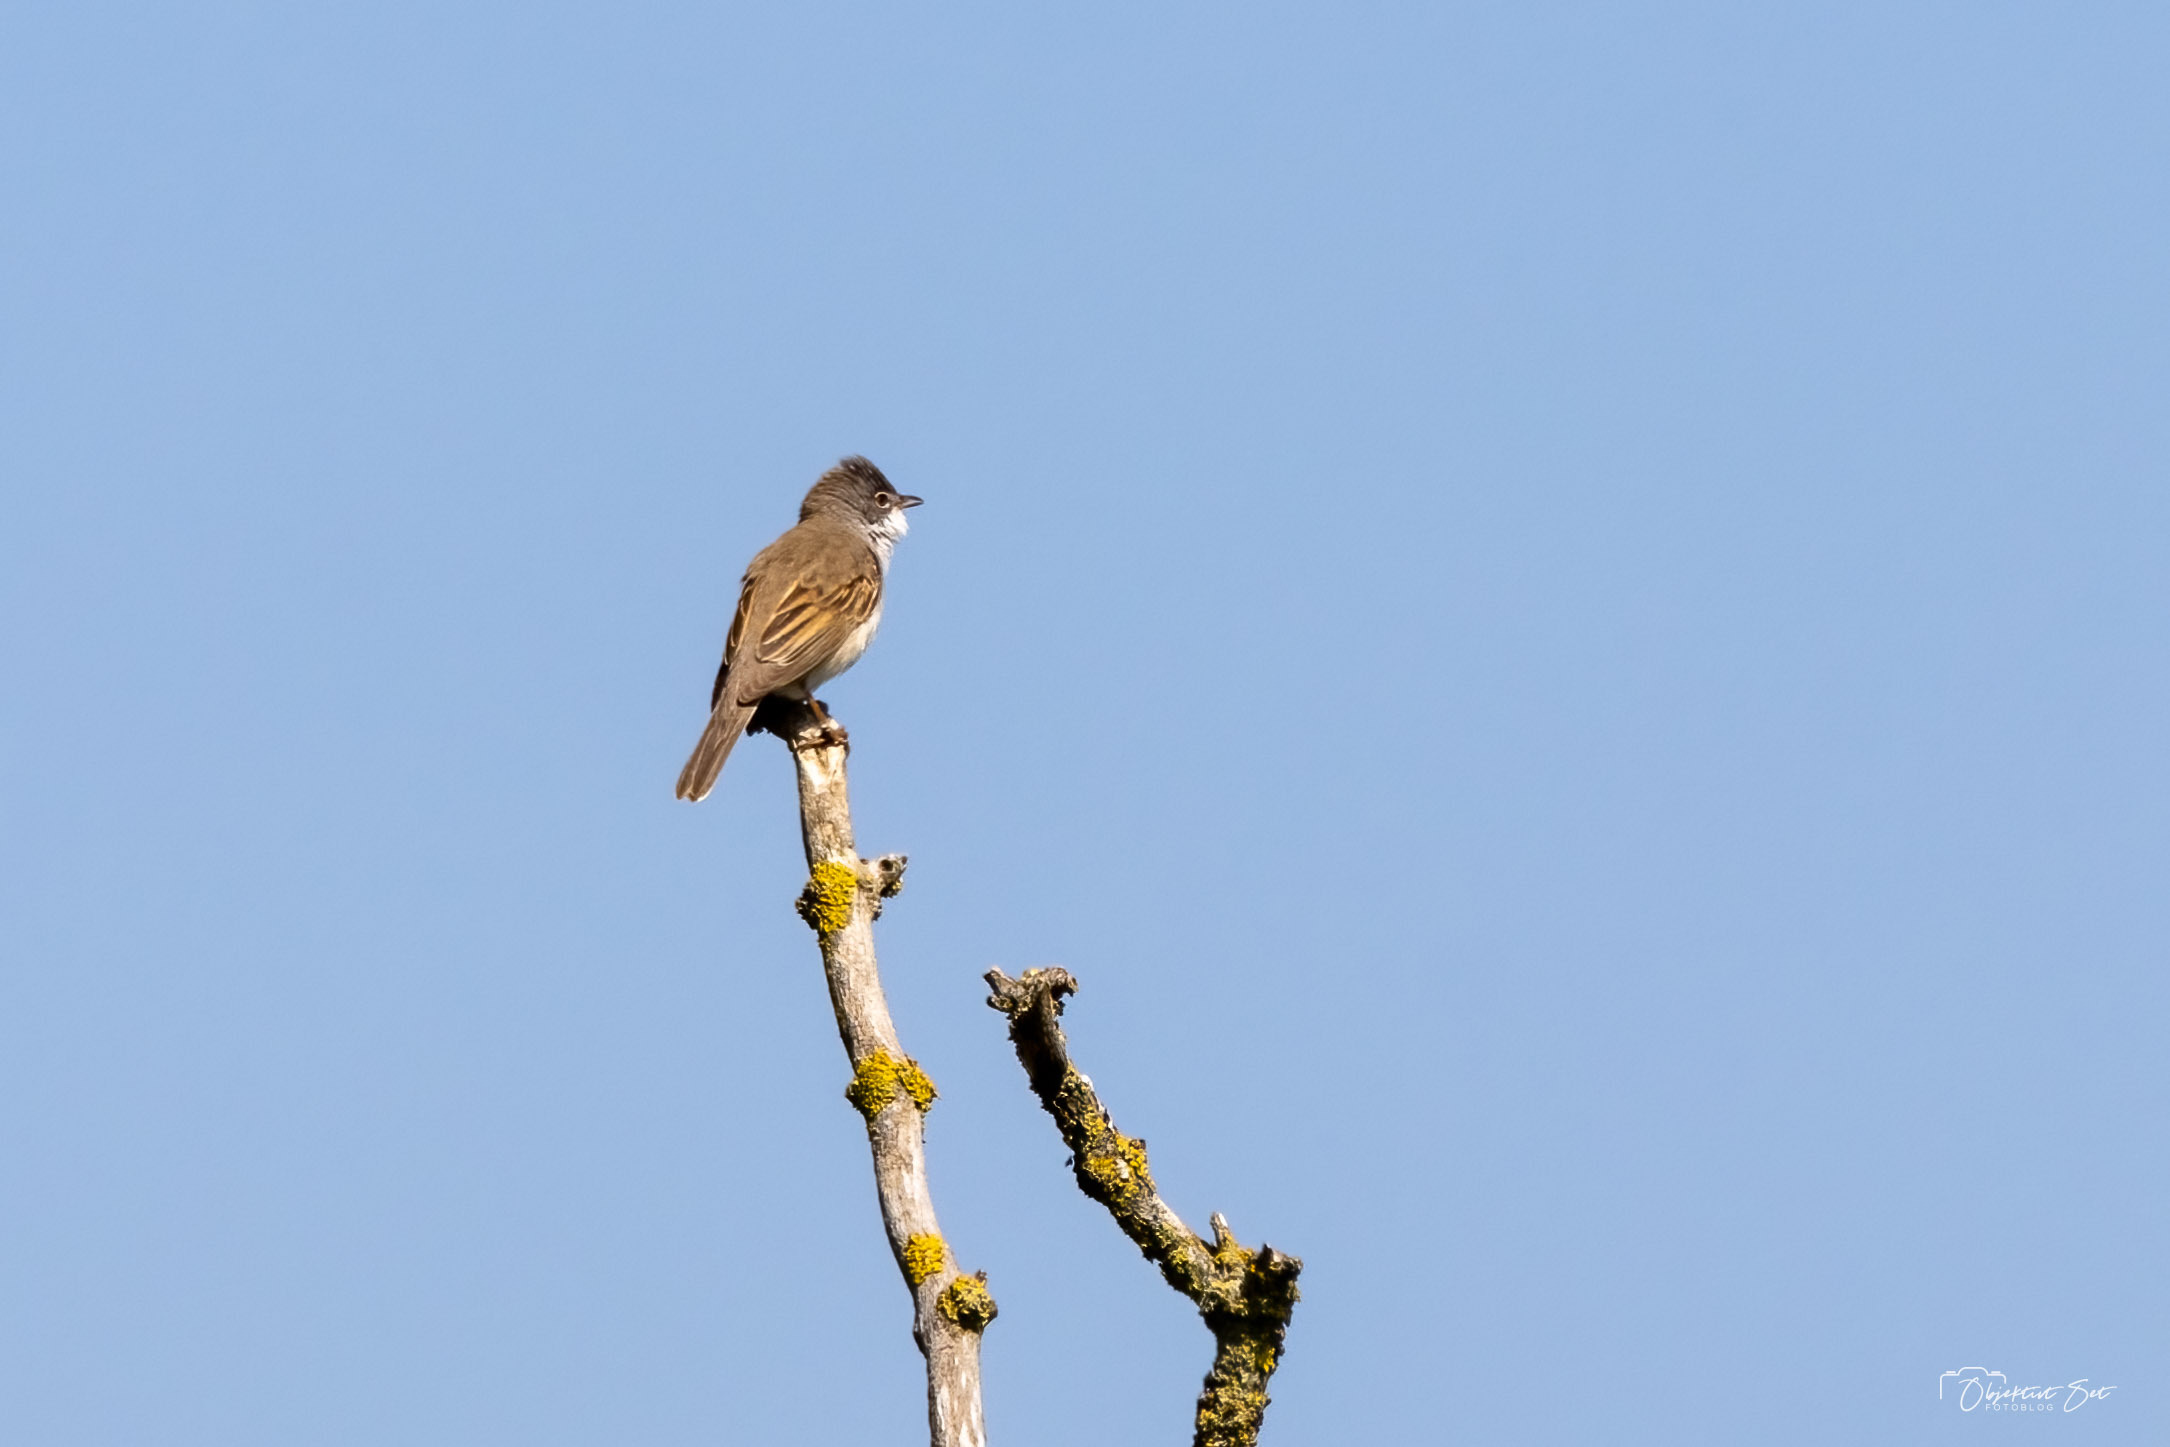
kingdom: Animalia
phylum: Chordata
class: Aves
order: Passeriformes
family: Sylviidae
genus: Sylvia
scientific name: Sylvia communis
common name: Tornsanger
